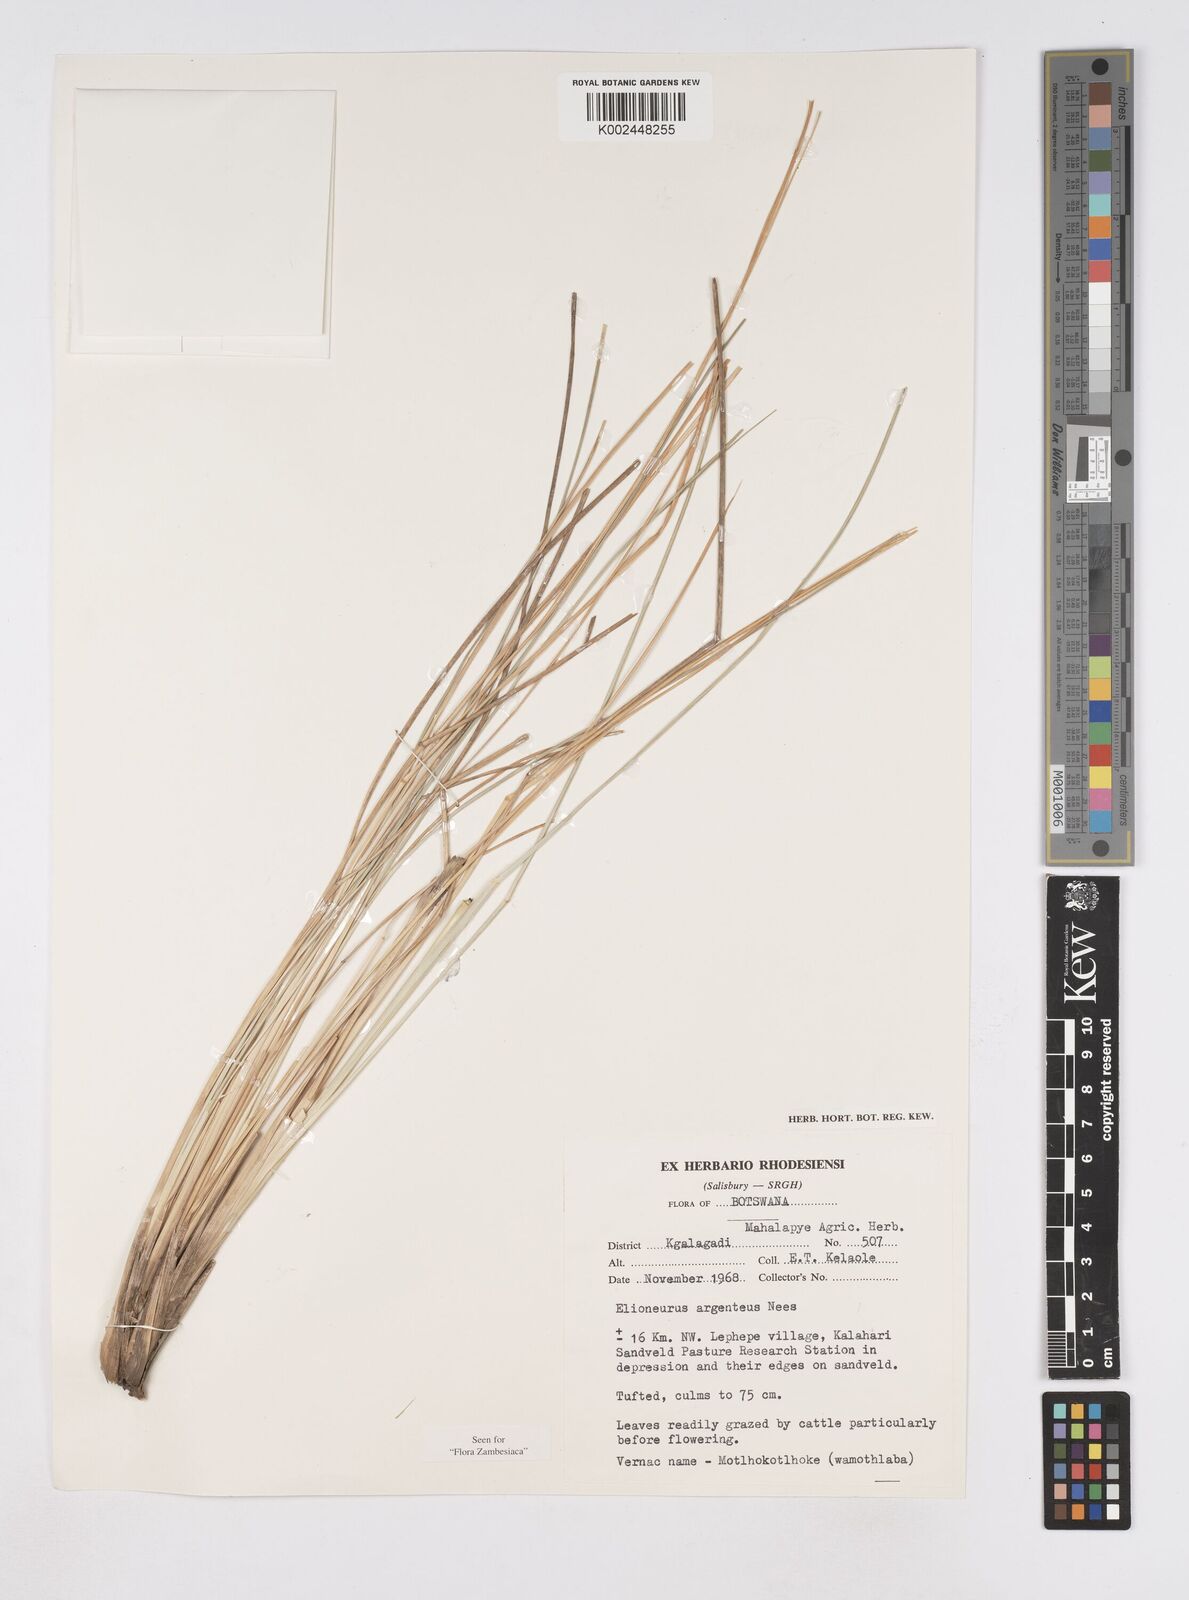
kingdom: Plantae
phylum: Tracheophyta
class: Liliopsida
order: Poales
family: Poaceae
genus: Elionurus
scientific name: Elionurus muticus
